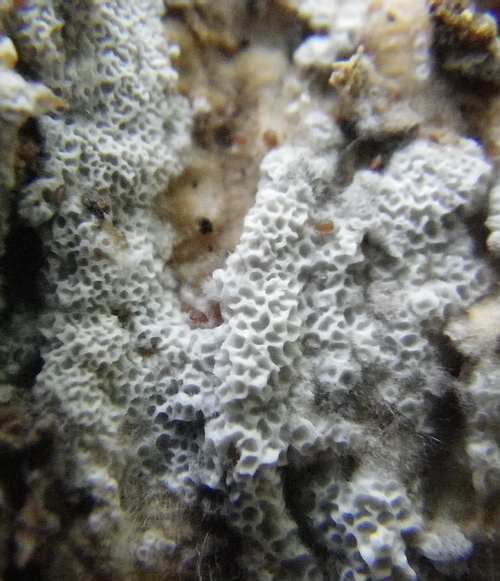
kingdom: Fungi
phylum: Basidiomycota
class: Agaricomycetes
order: Polyporales
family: Irpicaceae
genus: Ceriporia
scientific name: Ceriporia reticulata
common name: netagtig voksporesvamp
